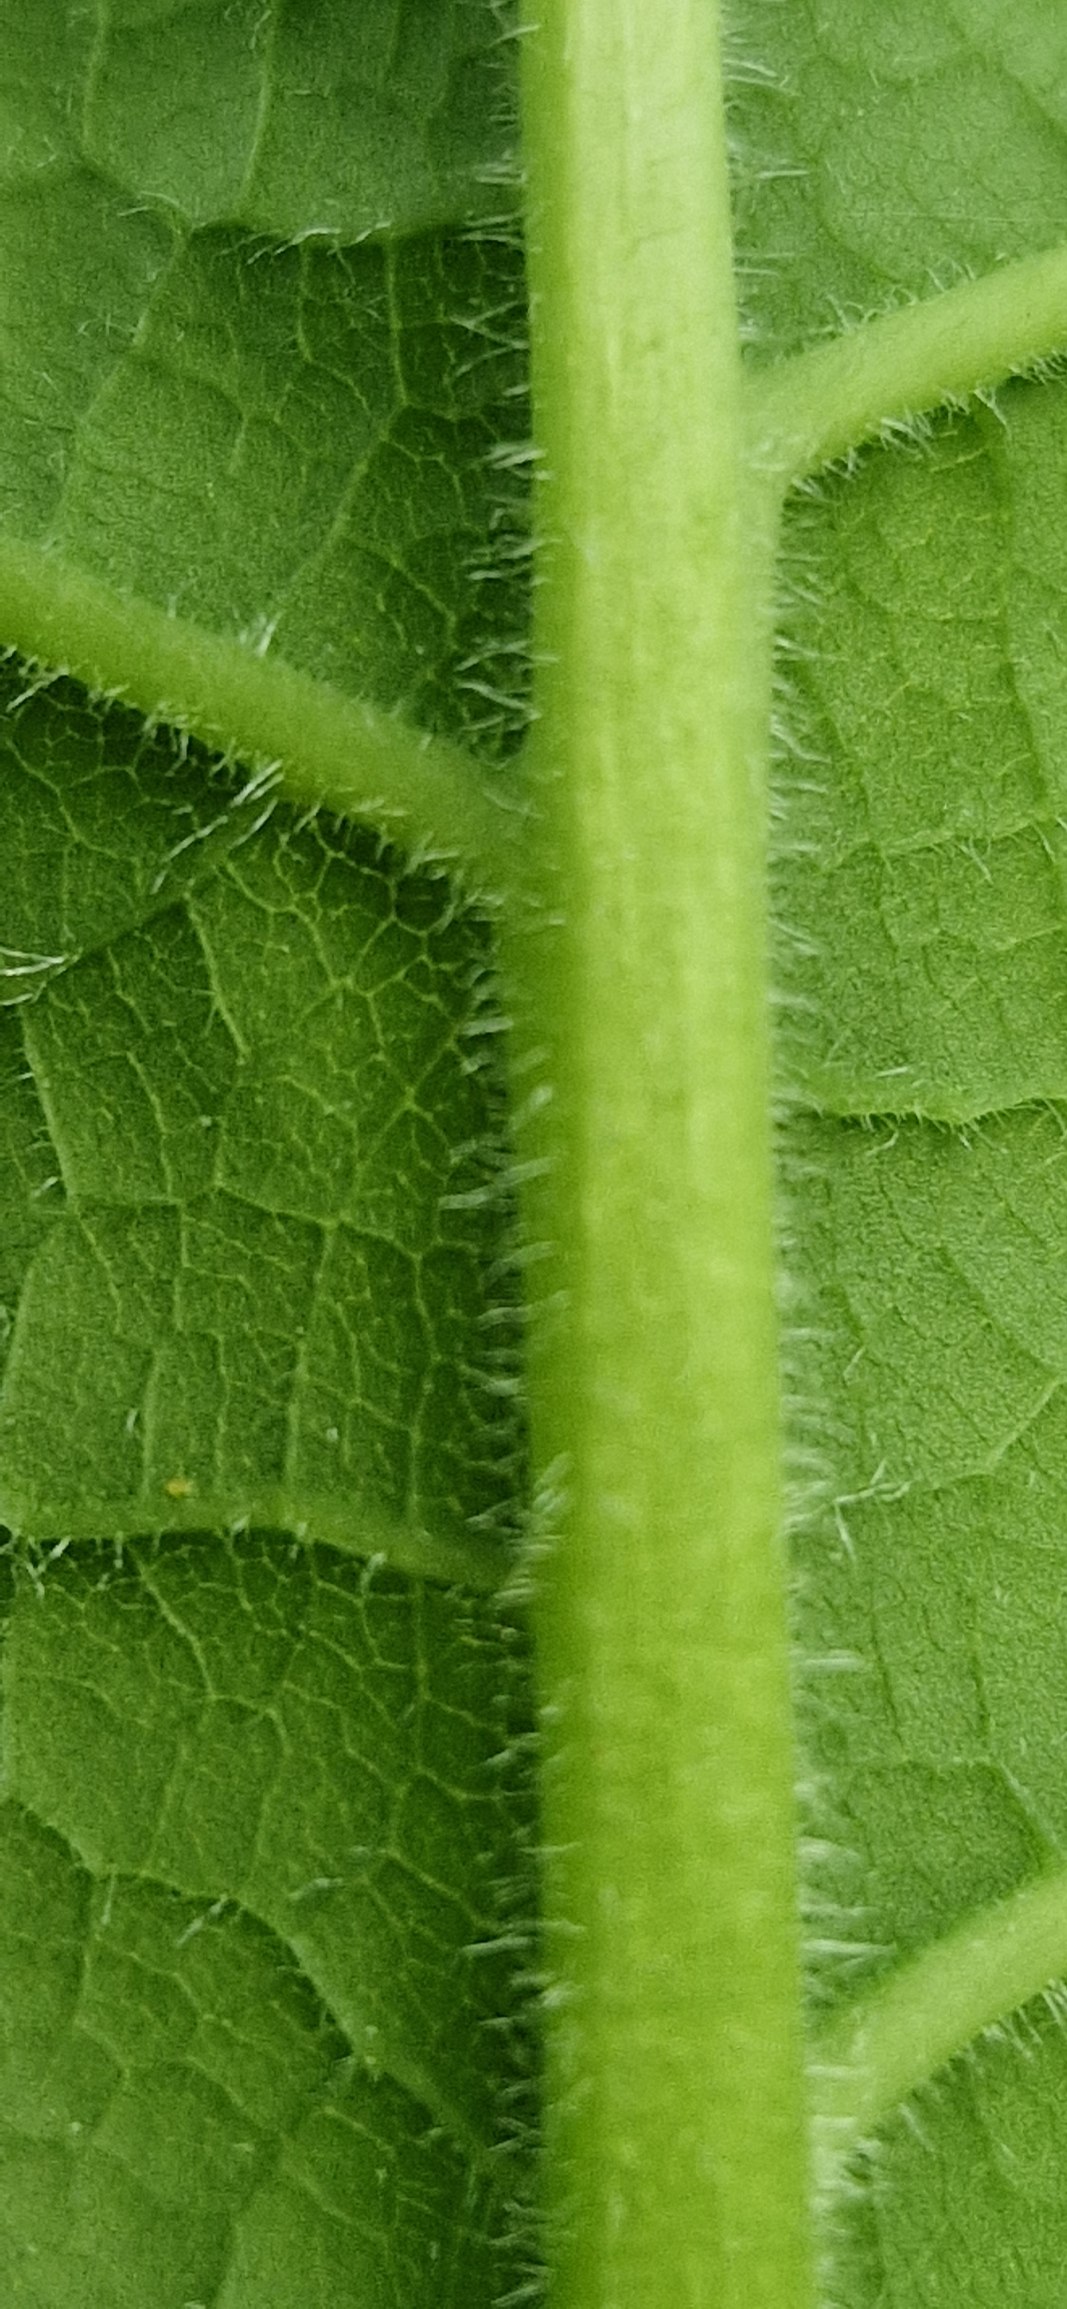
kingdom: Plantae
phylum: Tracheophyta
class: Magnoliopsida
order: Caryophyllales
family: Polygonaceae
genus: Reynoutria
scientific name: Reynoutria sachalinensis
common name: Kæmpe-pileurt
